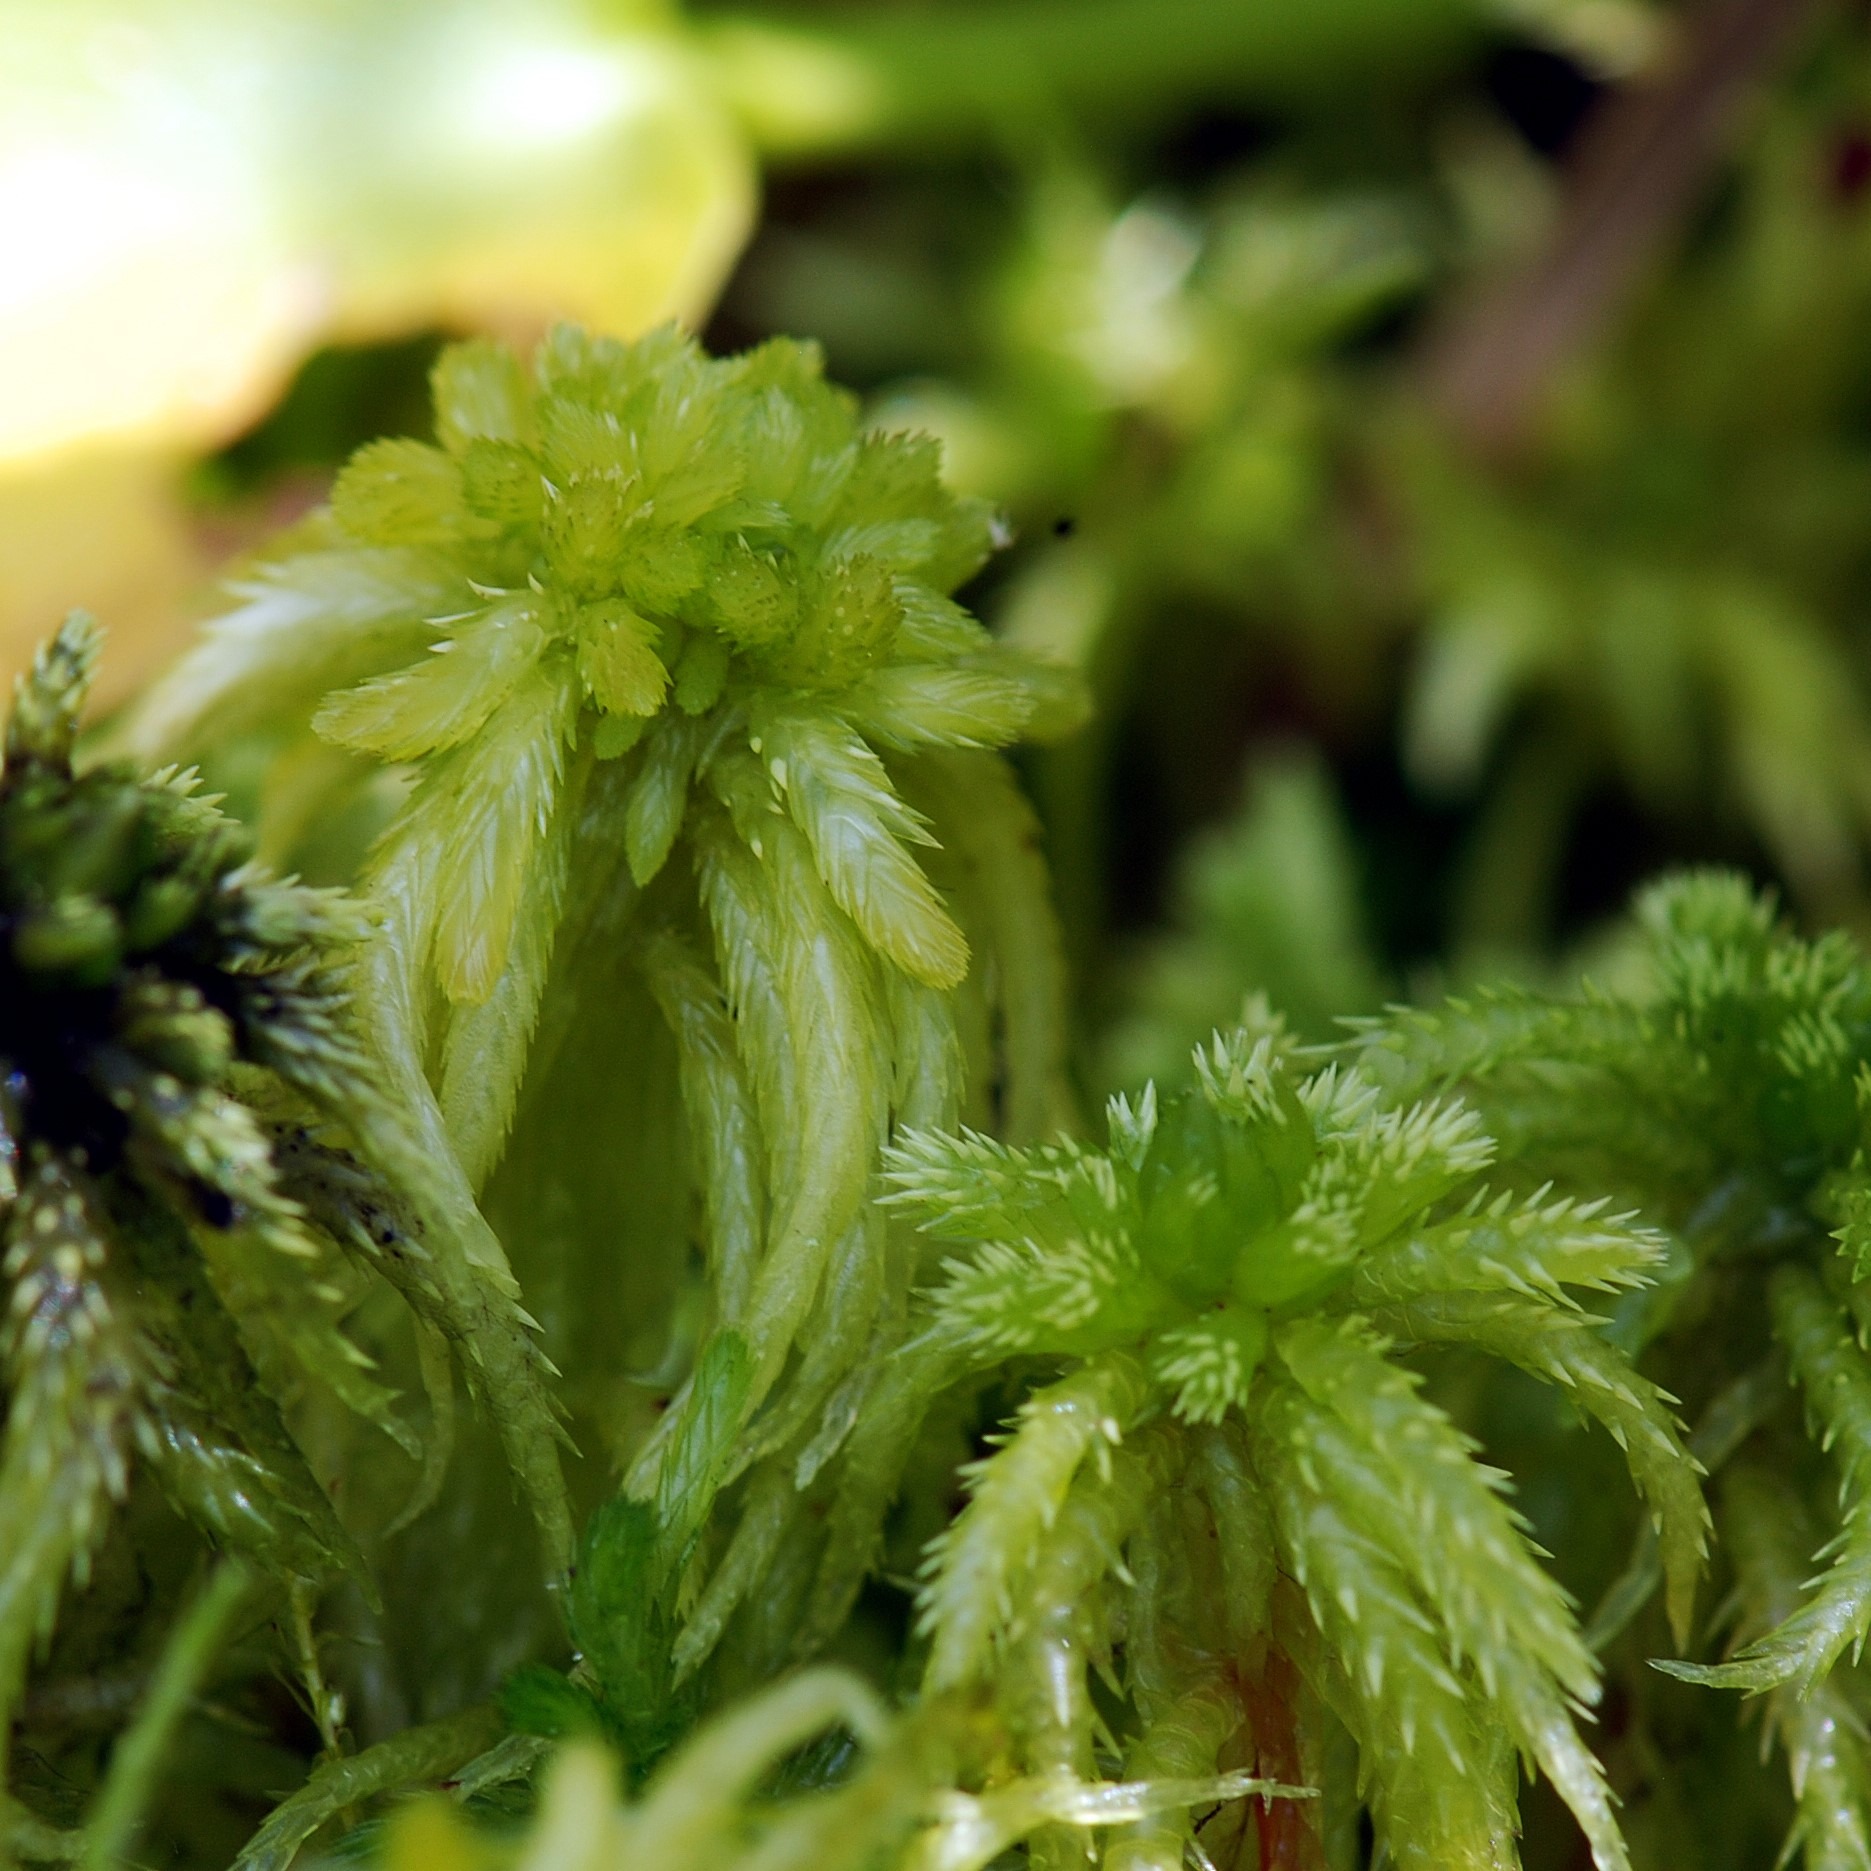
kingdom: Plantae
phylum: Bryophyta
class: Sphagnopsida
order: Sphagnales
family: Sphagnaceae
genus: Sphagnum
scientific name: Sphagnum obtusum
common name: Småporet tørvemos
